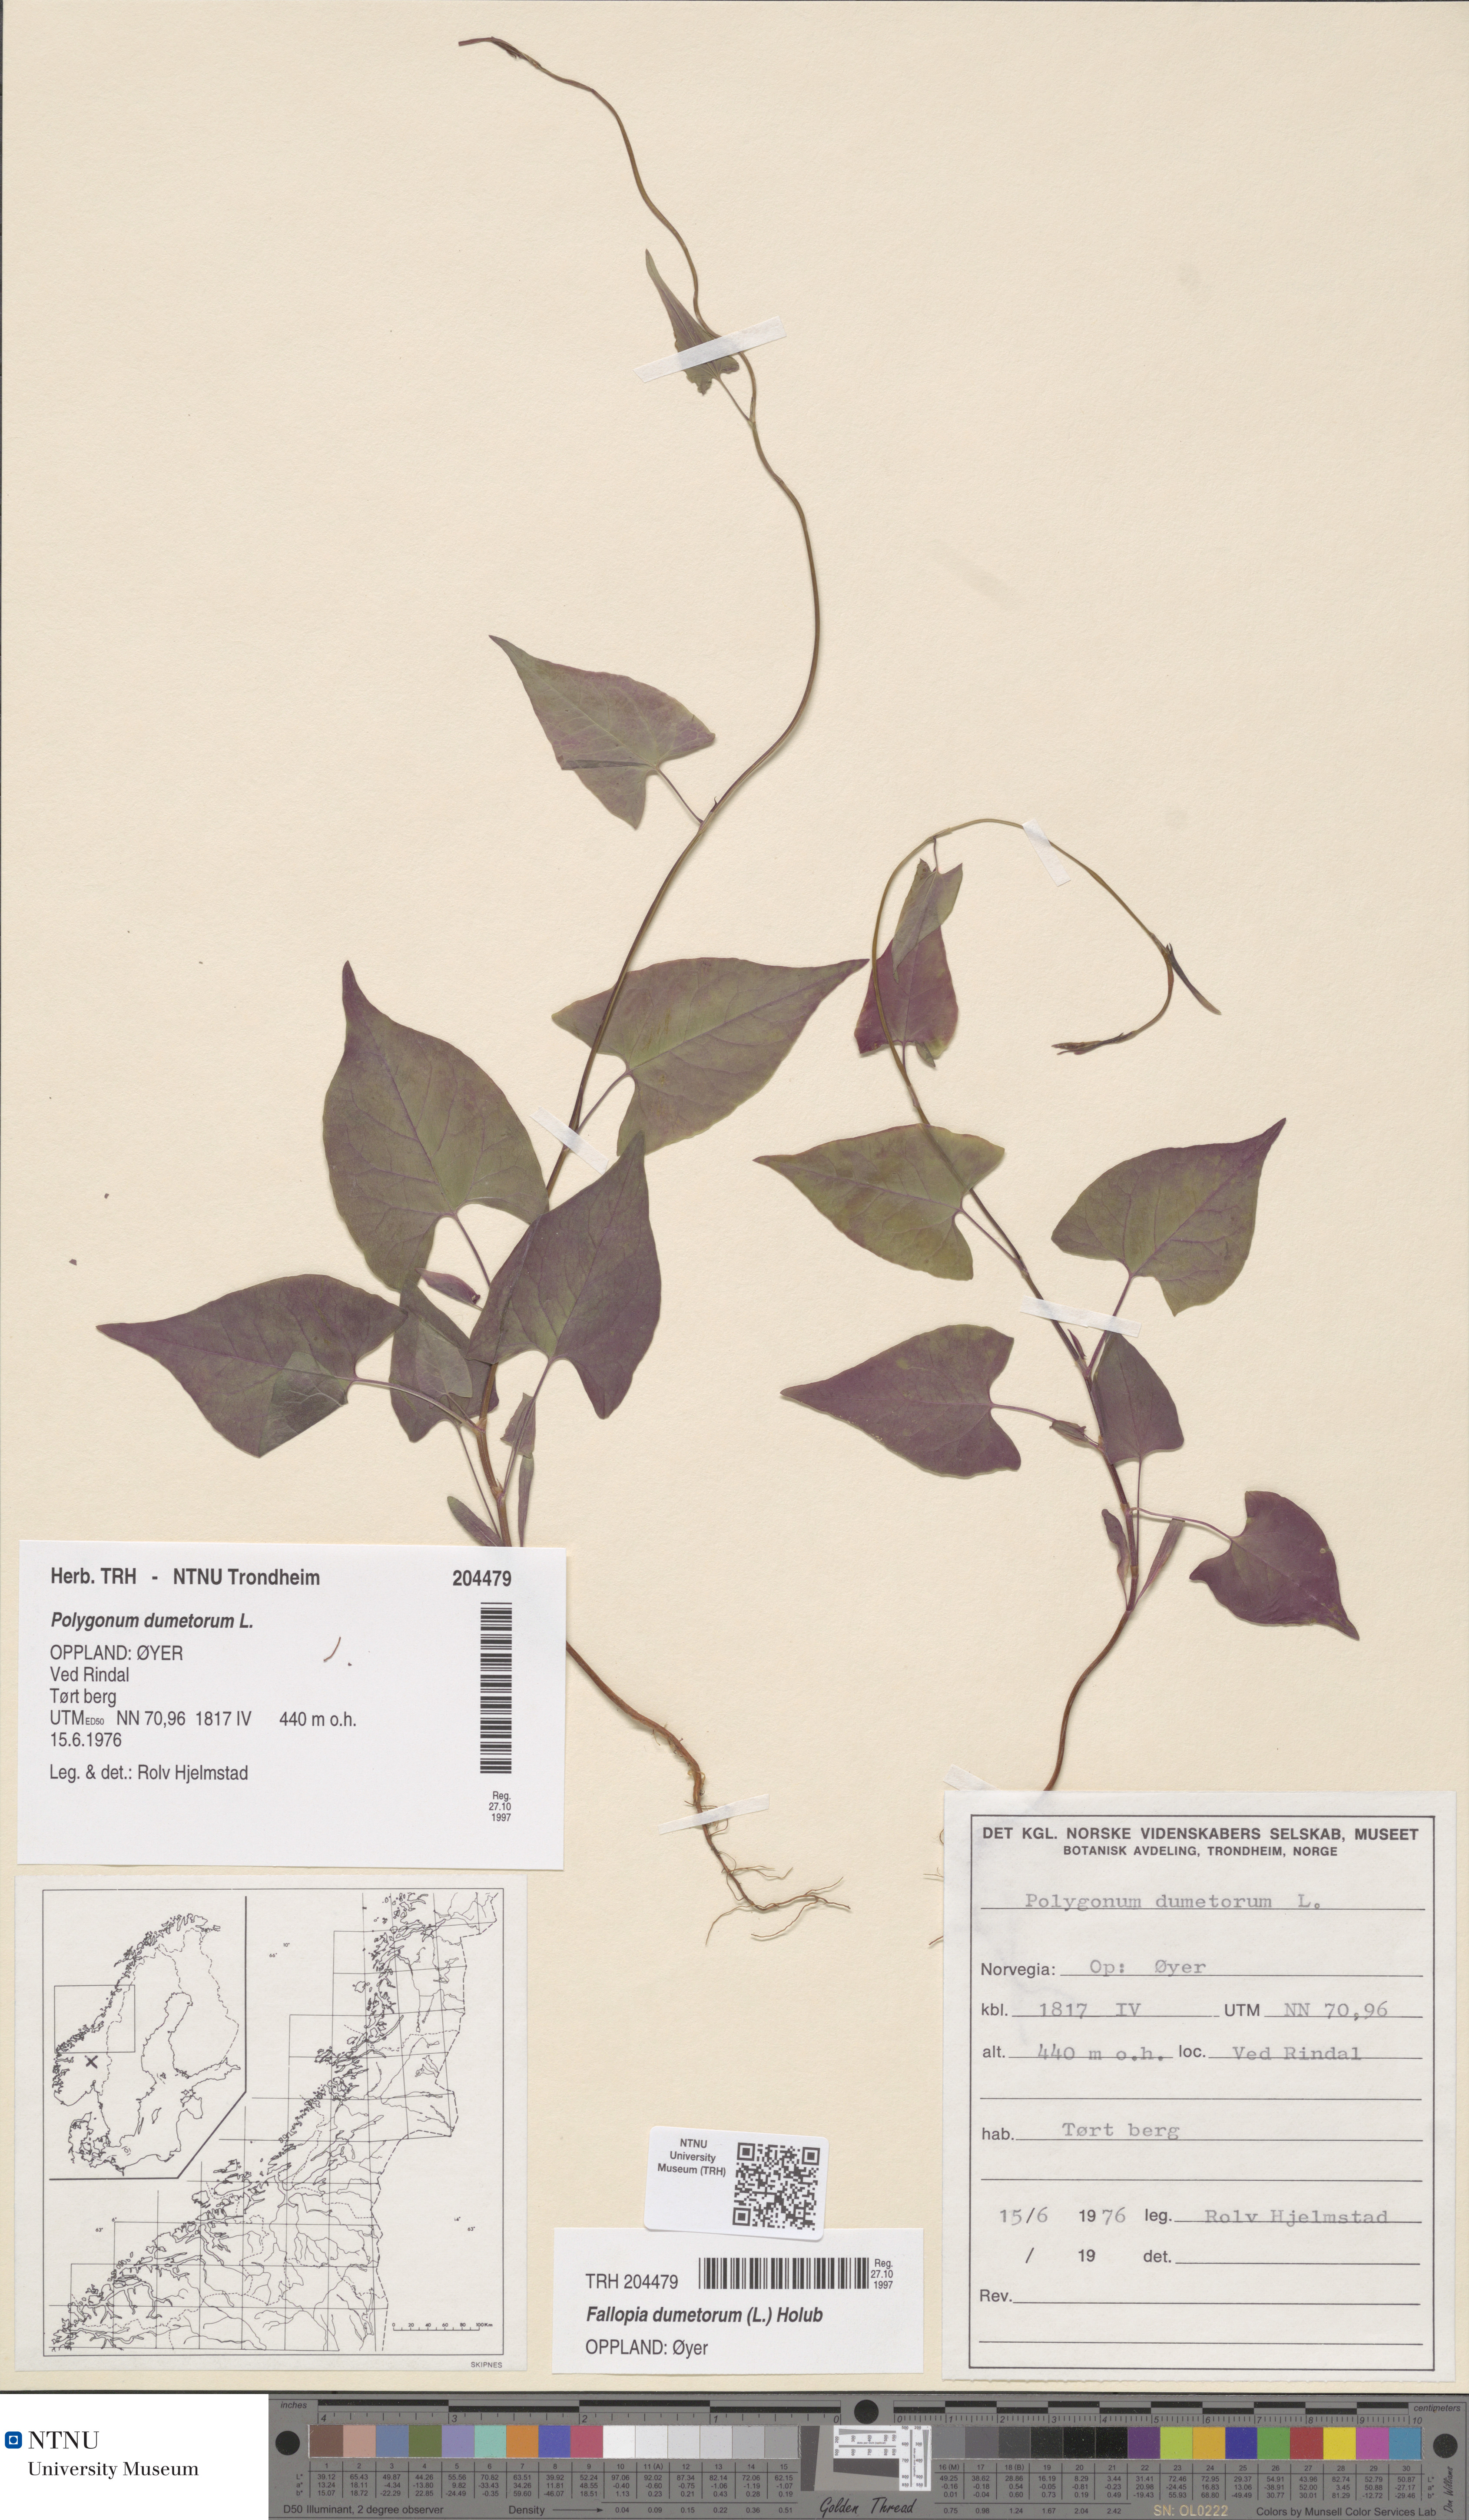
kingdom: Plantae
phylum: Tracheophyta
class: Magnoliopsida
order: Caryophyllales
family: Polygonaceae
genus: Fallopia
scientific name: Fallopia dumetorum
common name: Copse-bindweed
